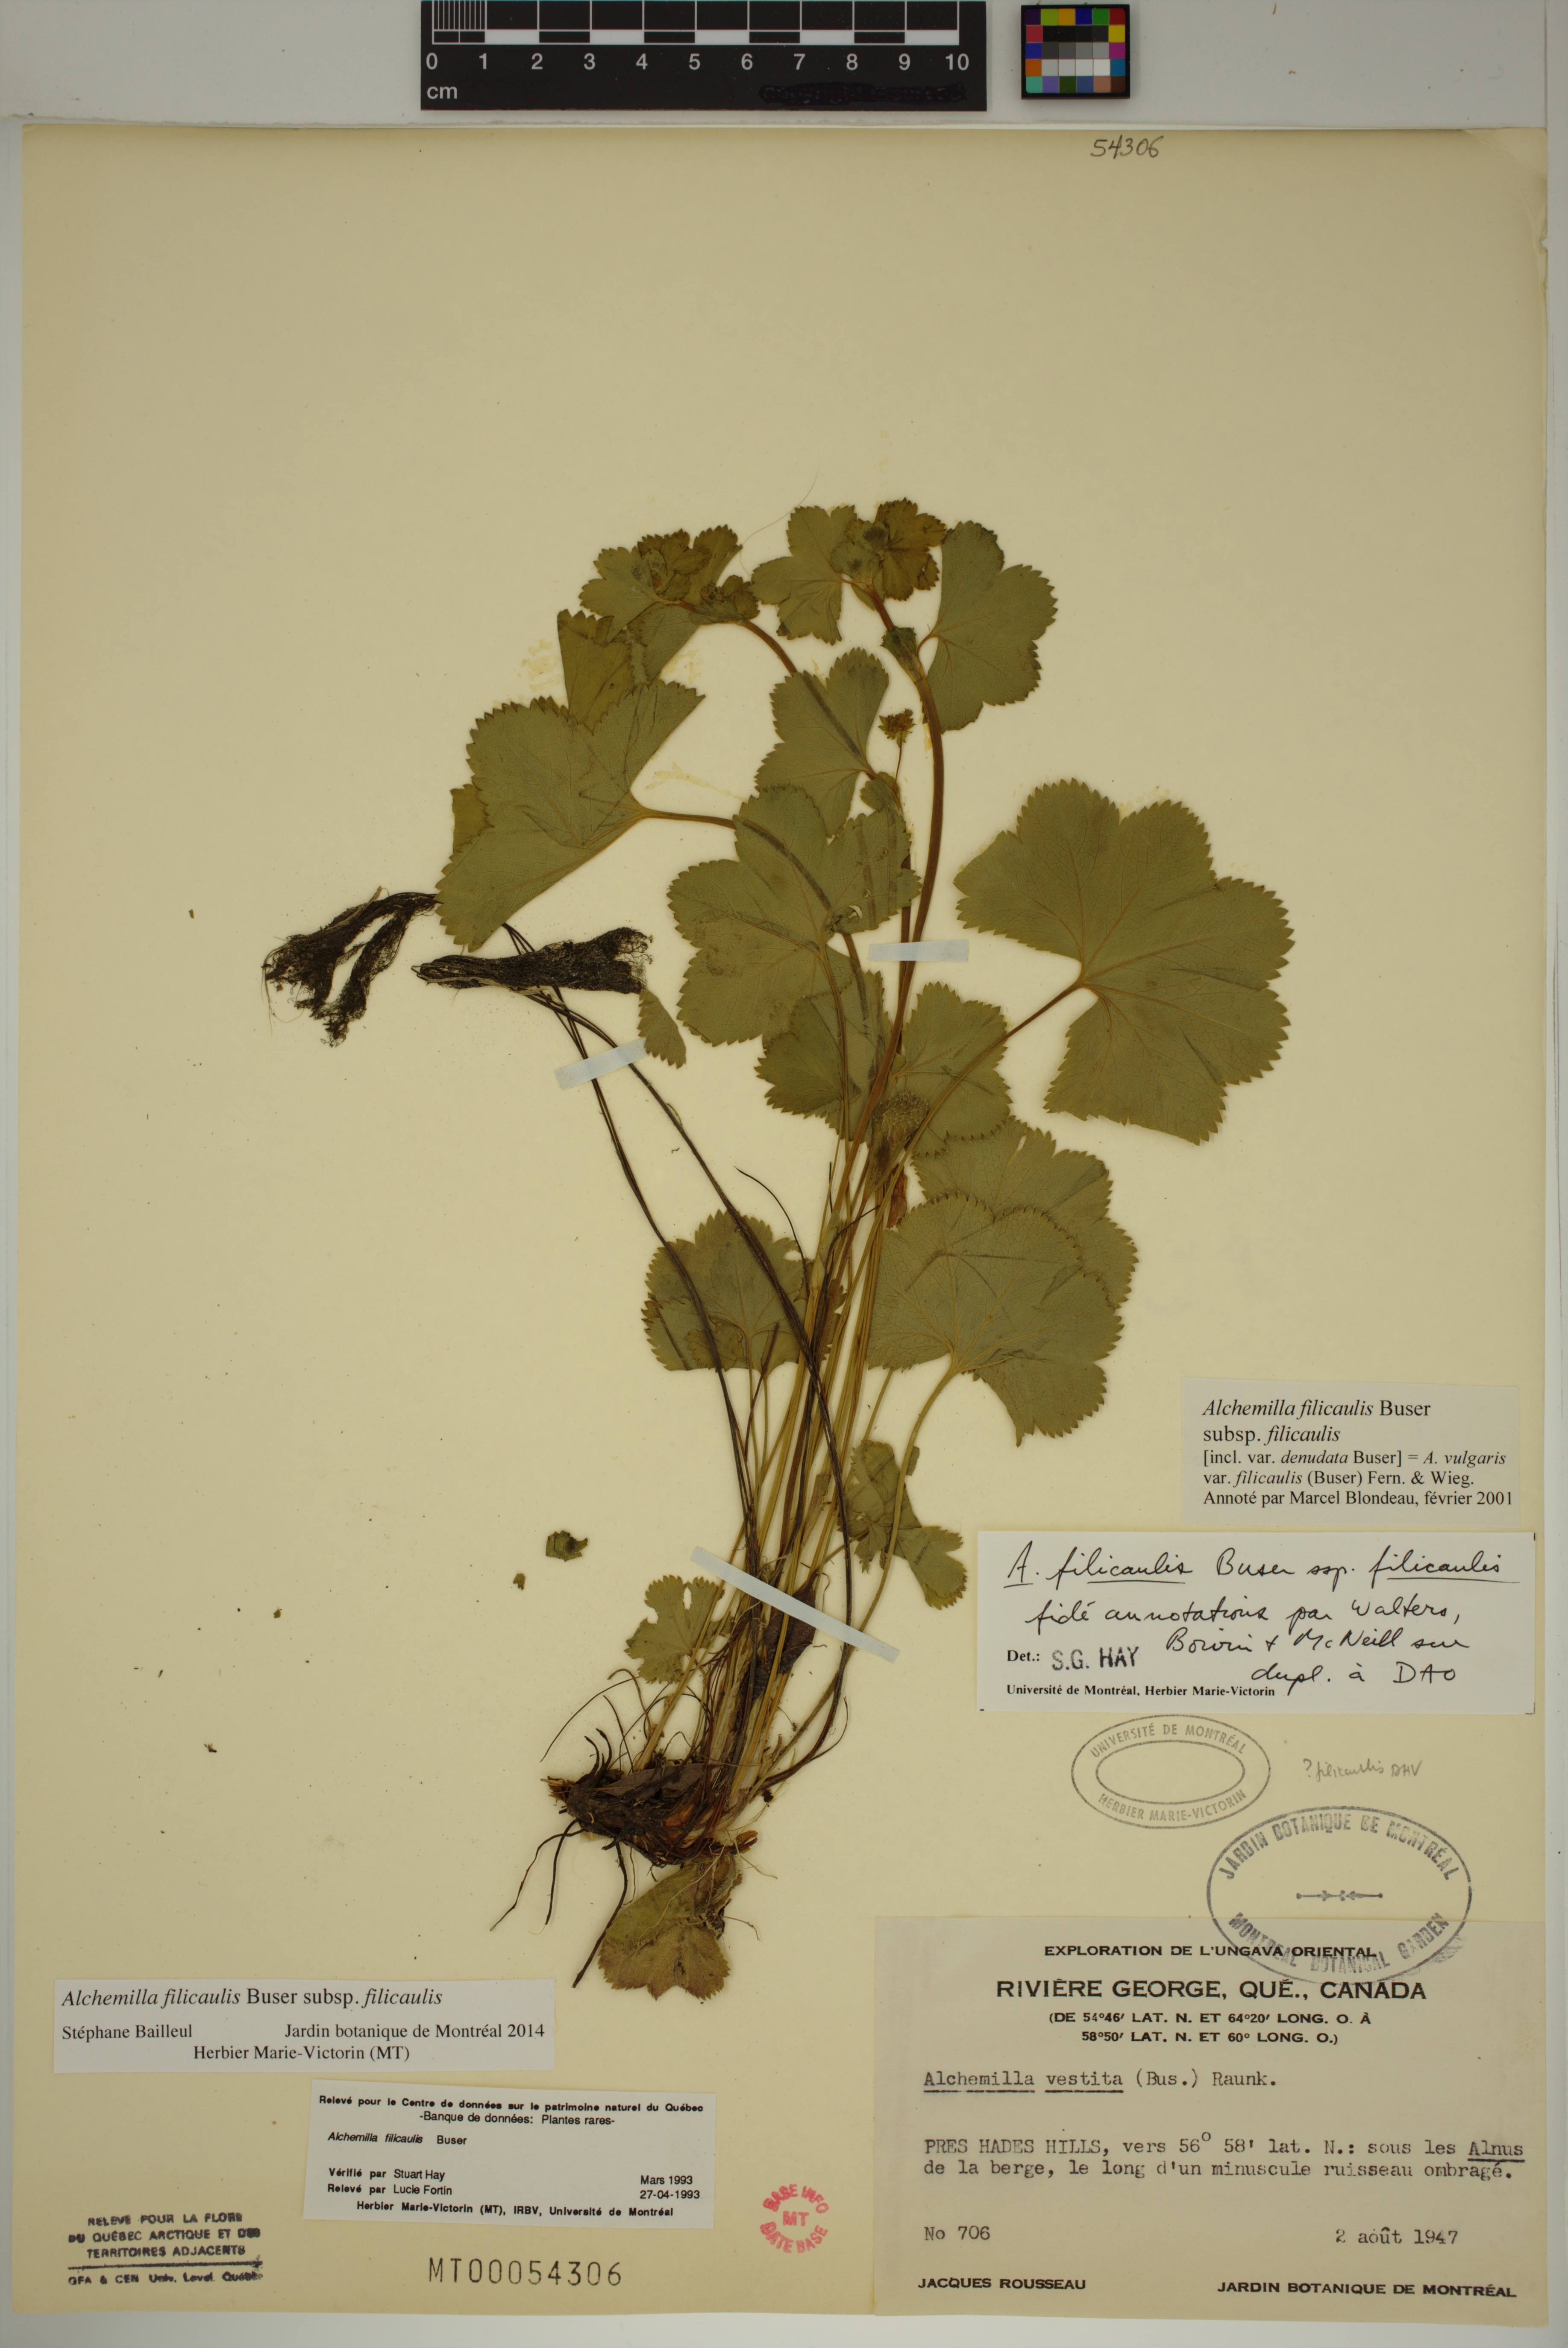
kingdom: Plantae
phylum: Tracheophyta
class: Magnoliopsida
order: Rosales
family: Rosaceae
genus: Alchemilla
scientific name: Alchemilla vulgaris
